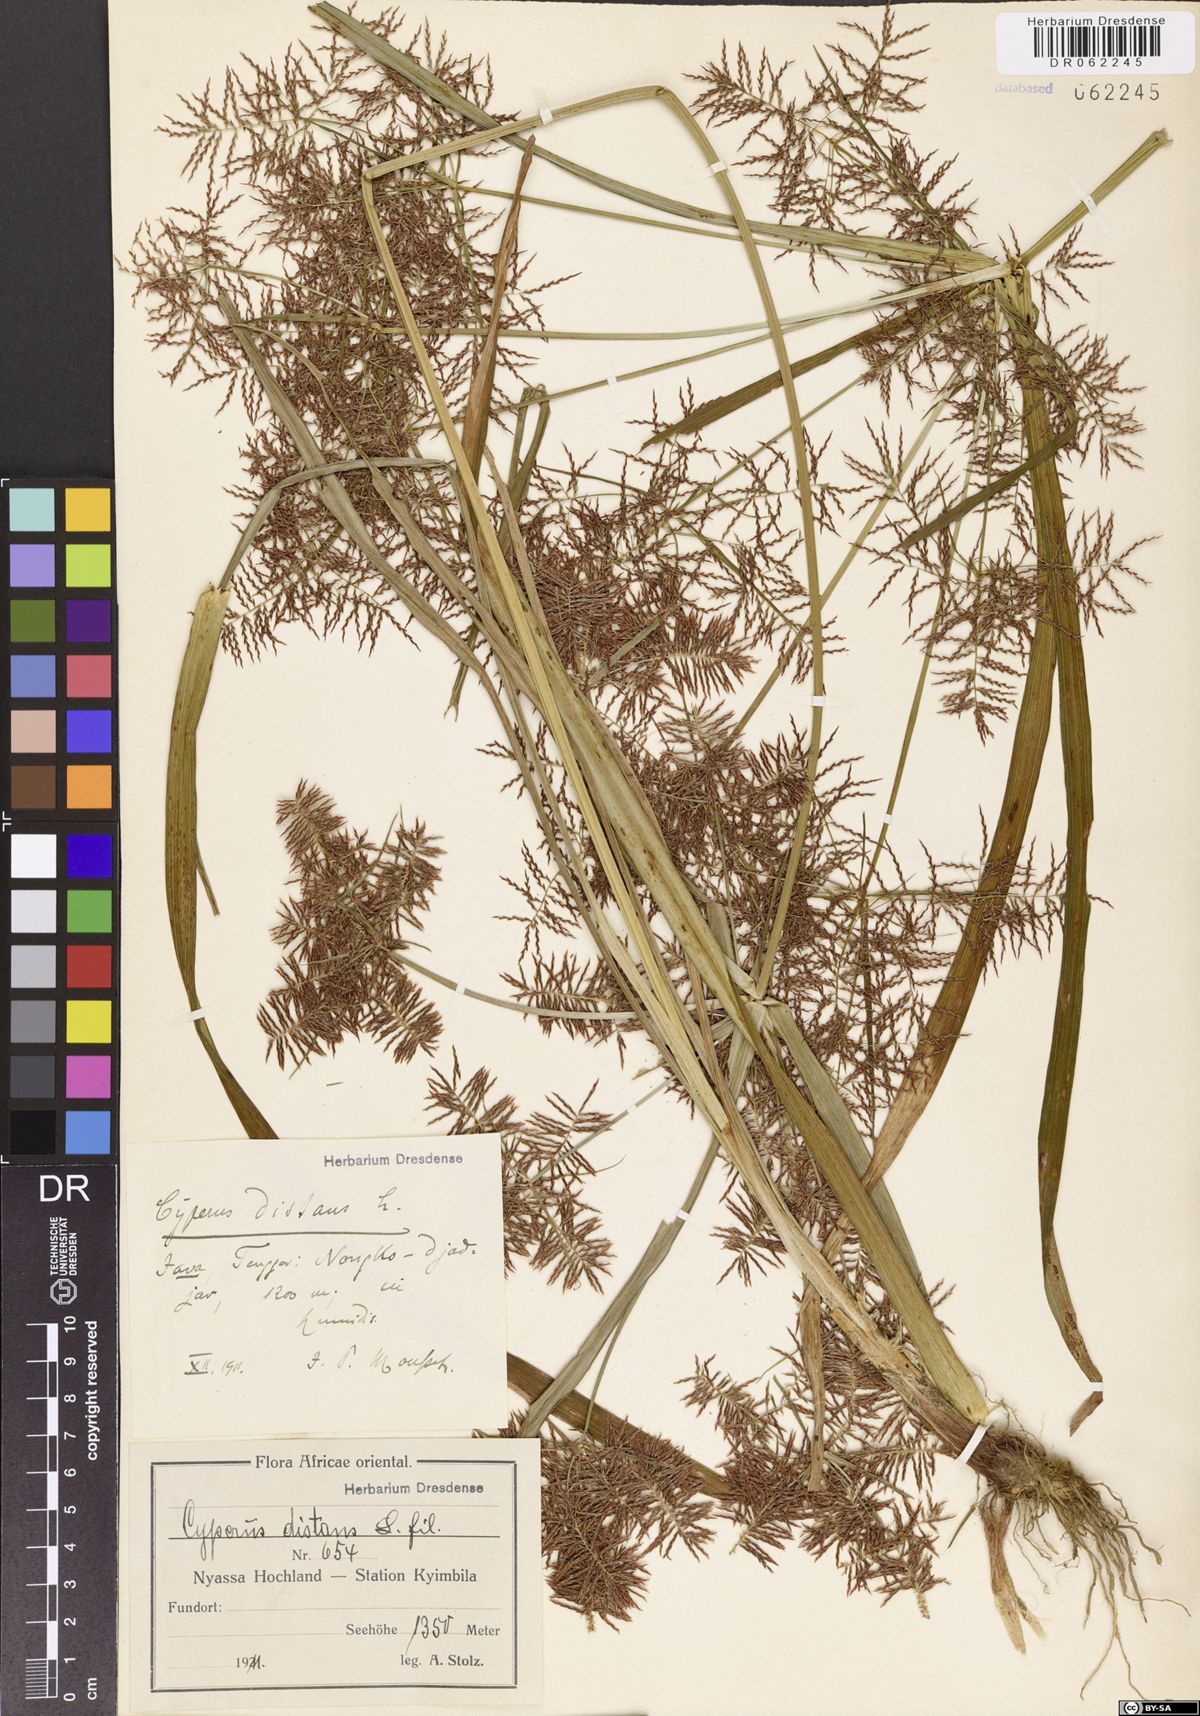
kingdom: Plantae
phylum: Tracheophyta
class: Liliopsida
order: Poales
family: Cyperaceae
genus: Cyperus
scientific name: Cyperus distans
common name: Slender cyperus
